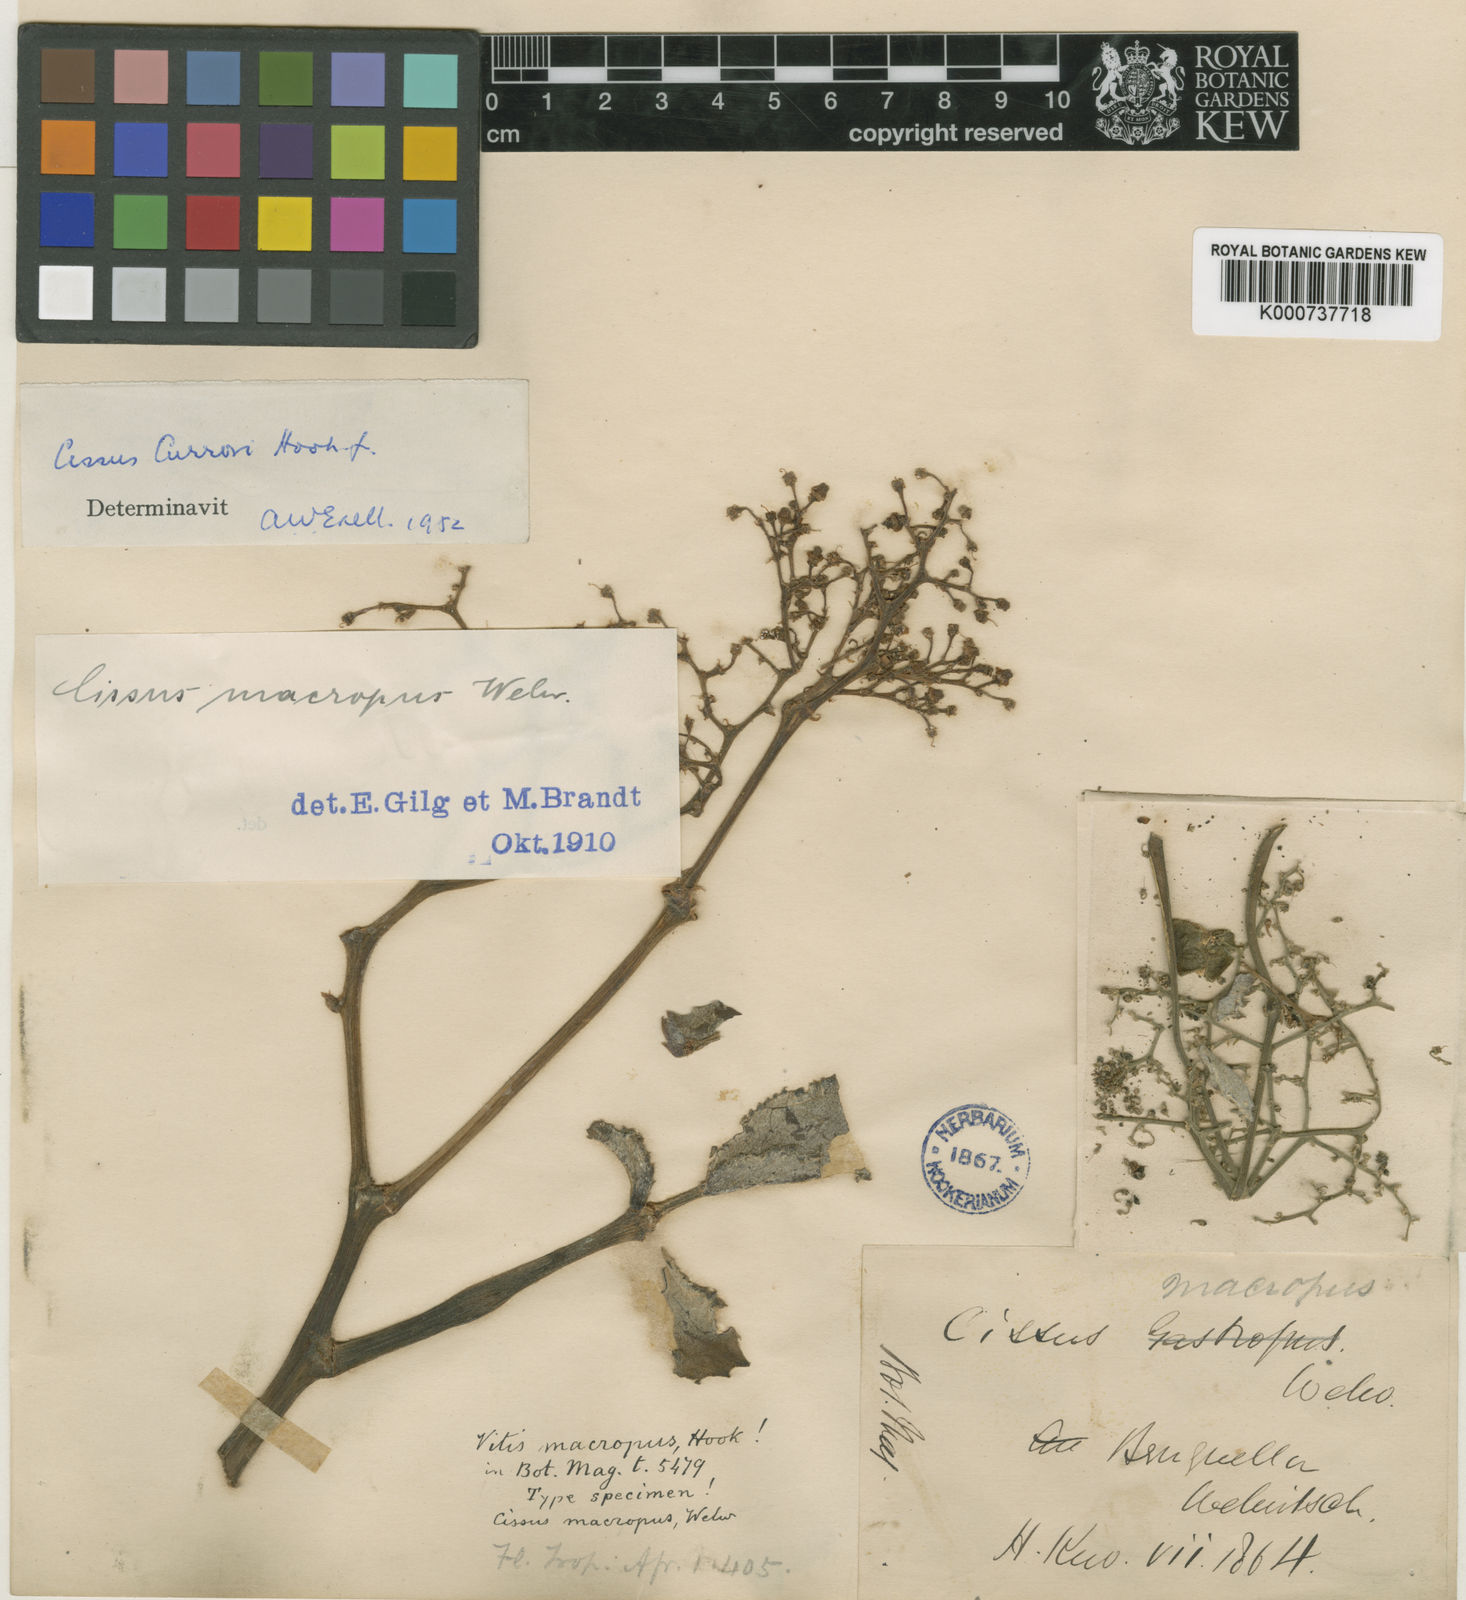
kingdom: Plantae
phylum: Tracheophyta
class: Magnoliopsida
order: Vitales
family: Vitaceae
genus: Cyphostemma
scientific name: Cyphostemma currorii
